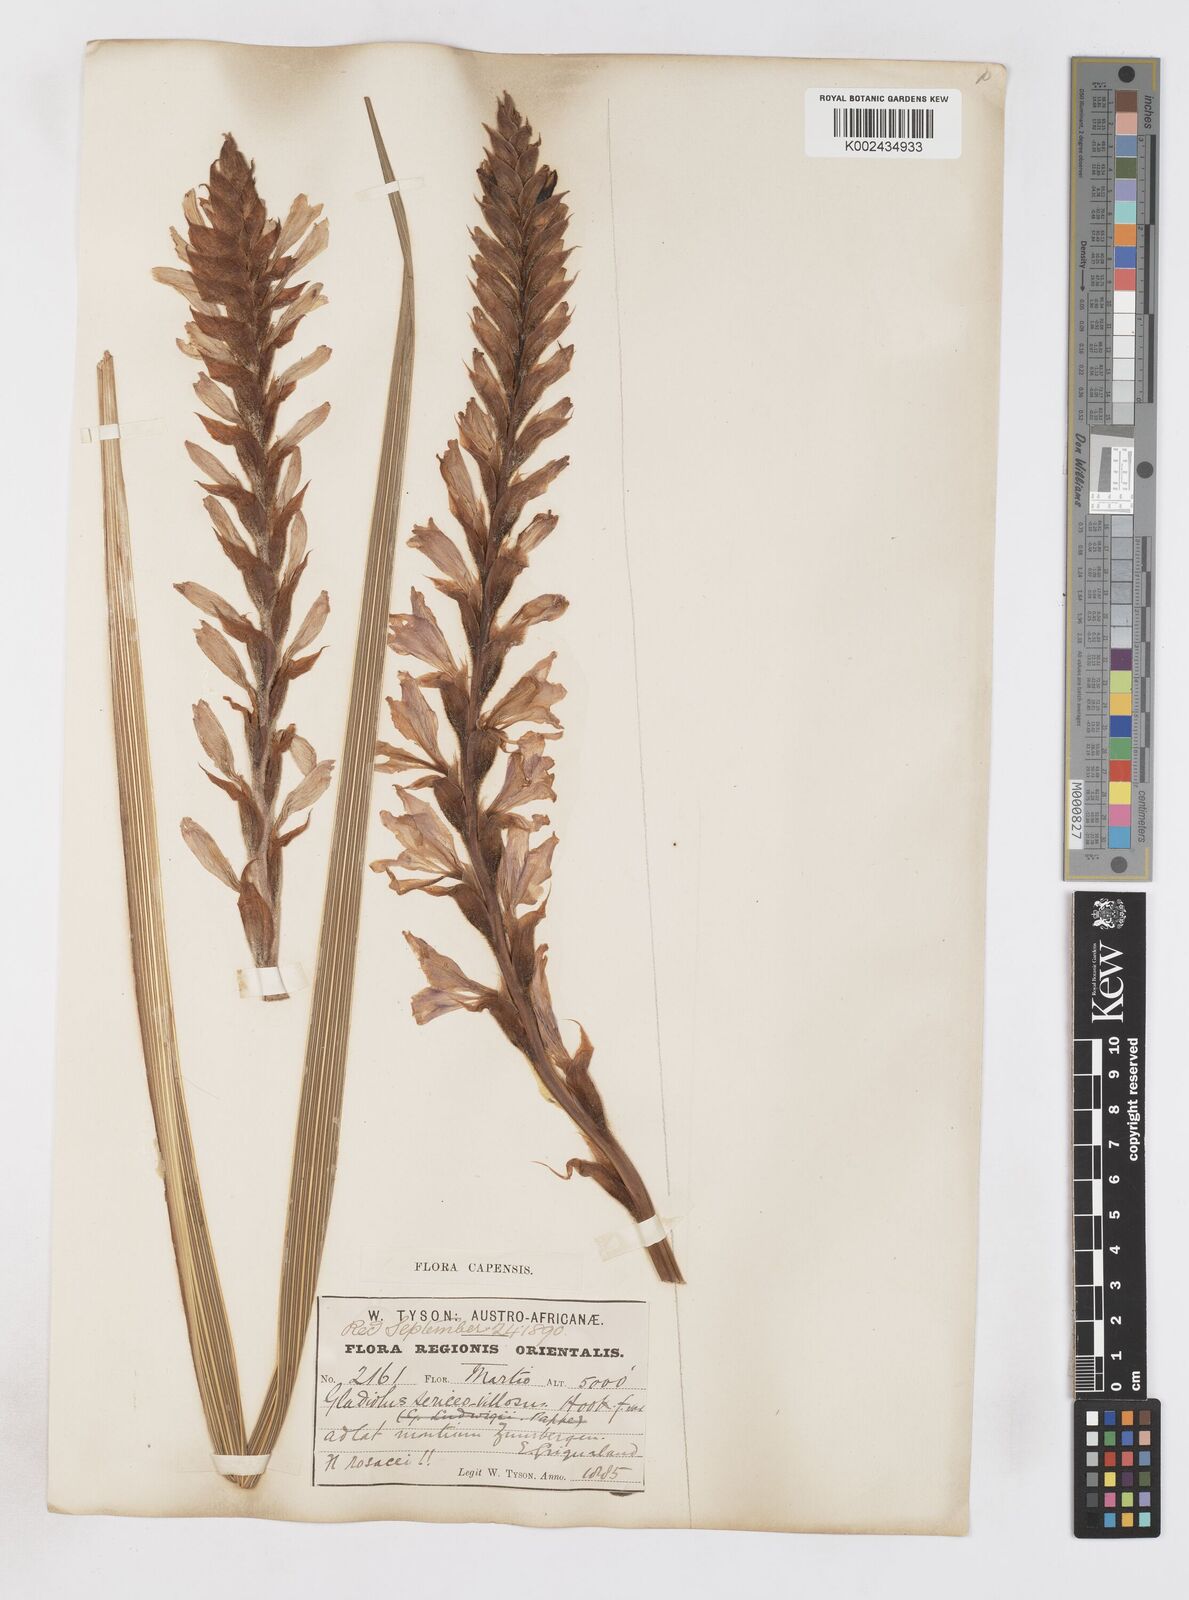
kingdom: Plantae
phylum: Tracheophyta
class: Liliopsida
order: Asparagales
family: Iridaceae
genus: Gladiolus
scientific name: Gladiolus sericeovillosus
